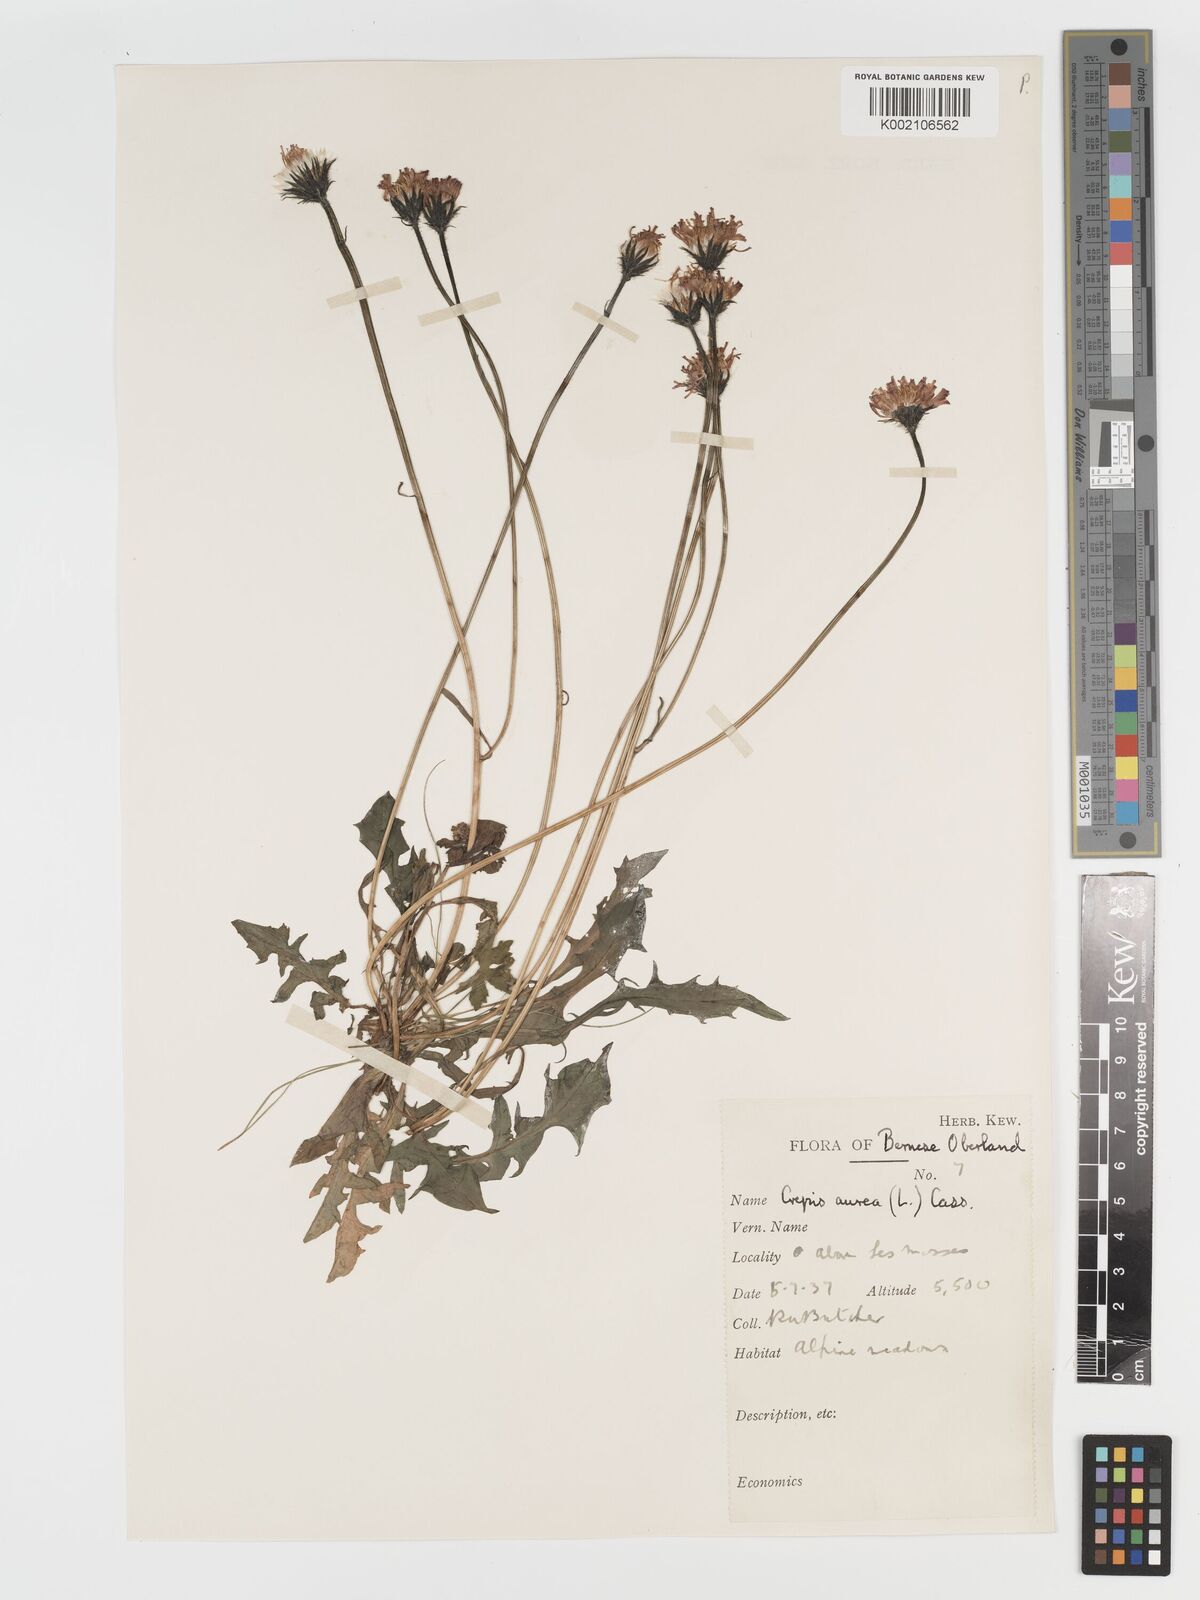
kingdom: Plantae
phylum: Tracheophyta
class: Magnoliopsida
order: Asterales
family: Asteraceae
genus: Crepis
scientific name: Crepis aurea
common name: Golden hawk's-beard
